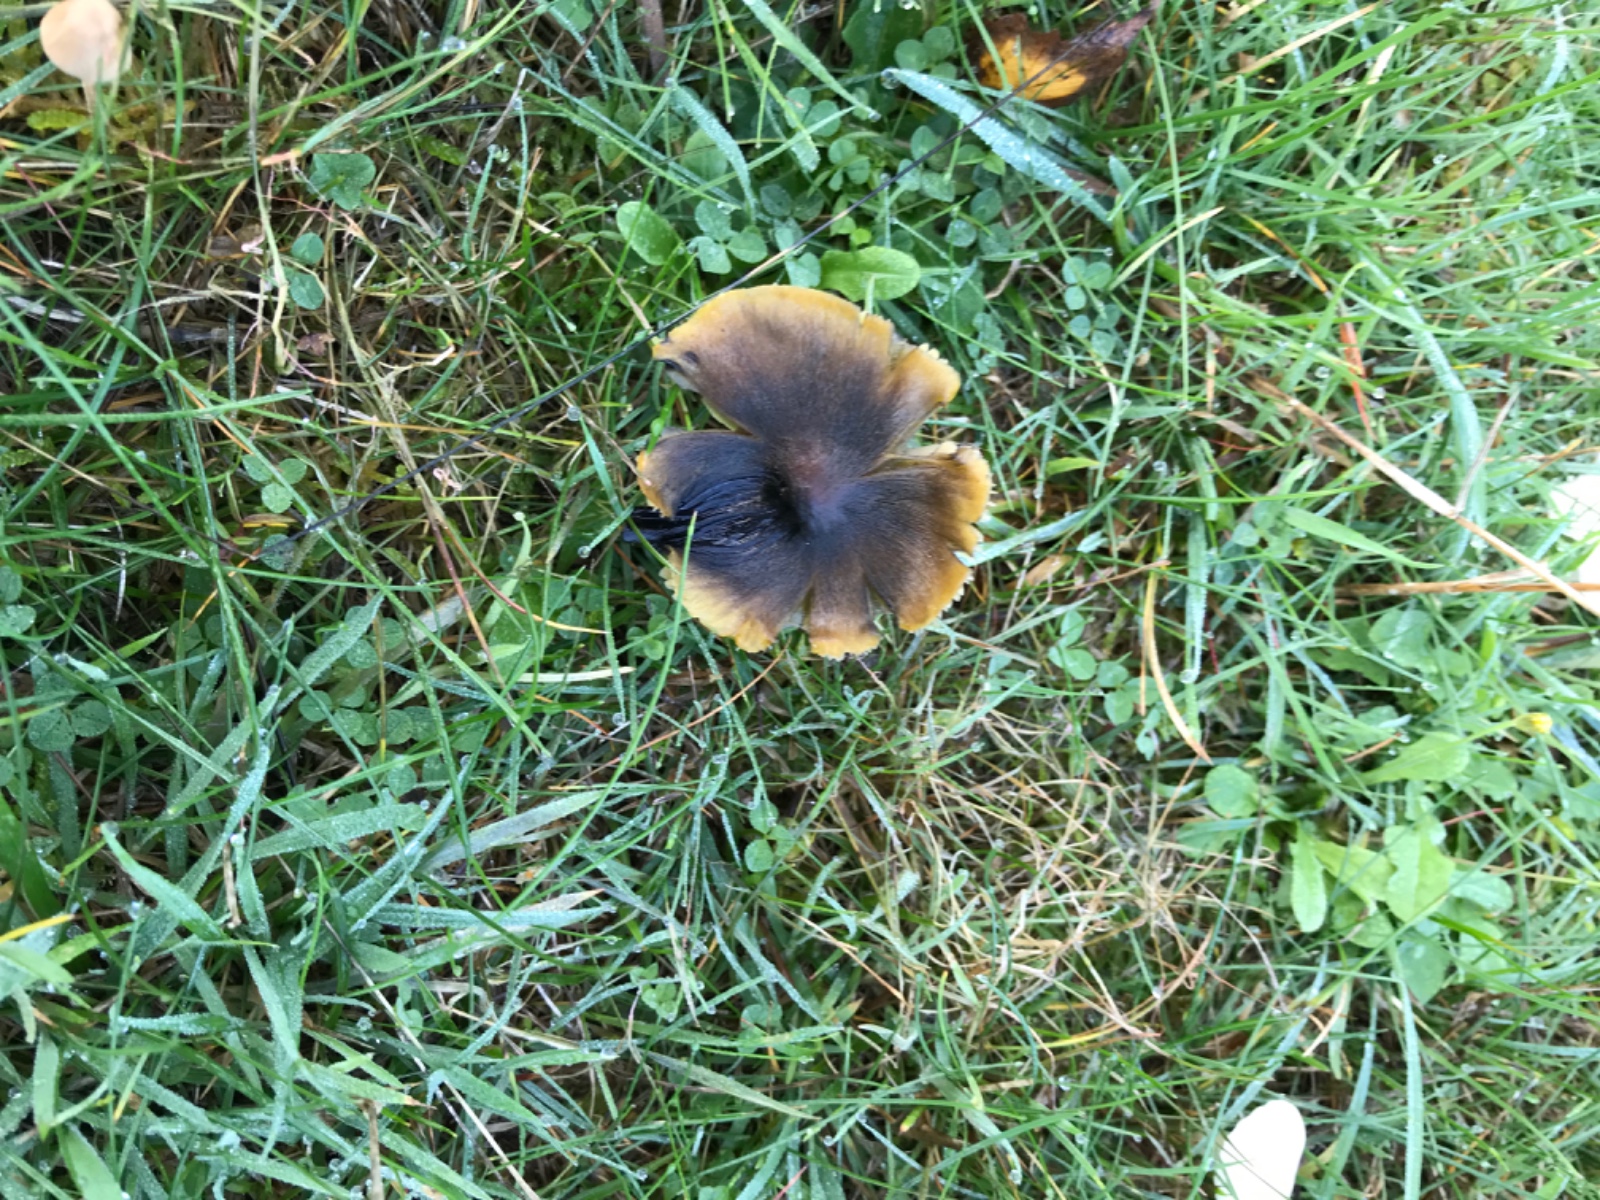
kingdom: Fungi
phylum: Basidiomycota
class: Agaricomycetes
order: Agaricales
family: Hygrophoraceae
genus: Hygrocybe
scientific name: Hygrocybe conica
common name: kegle-vokshat
